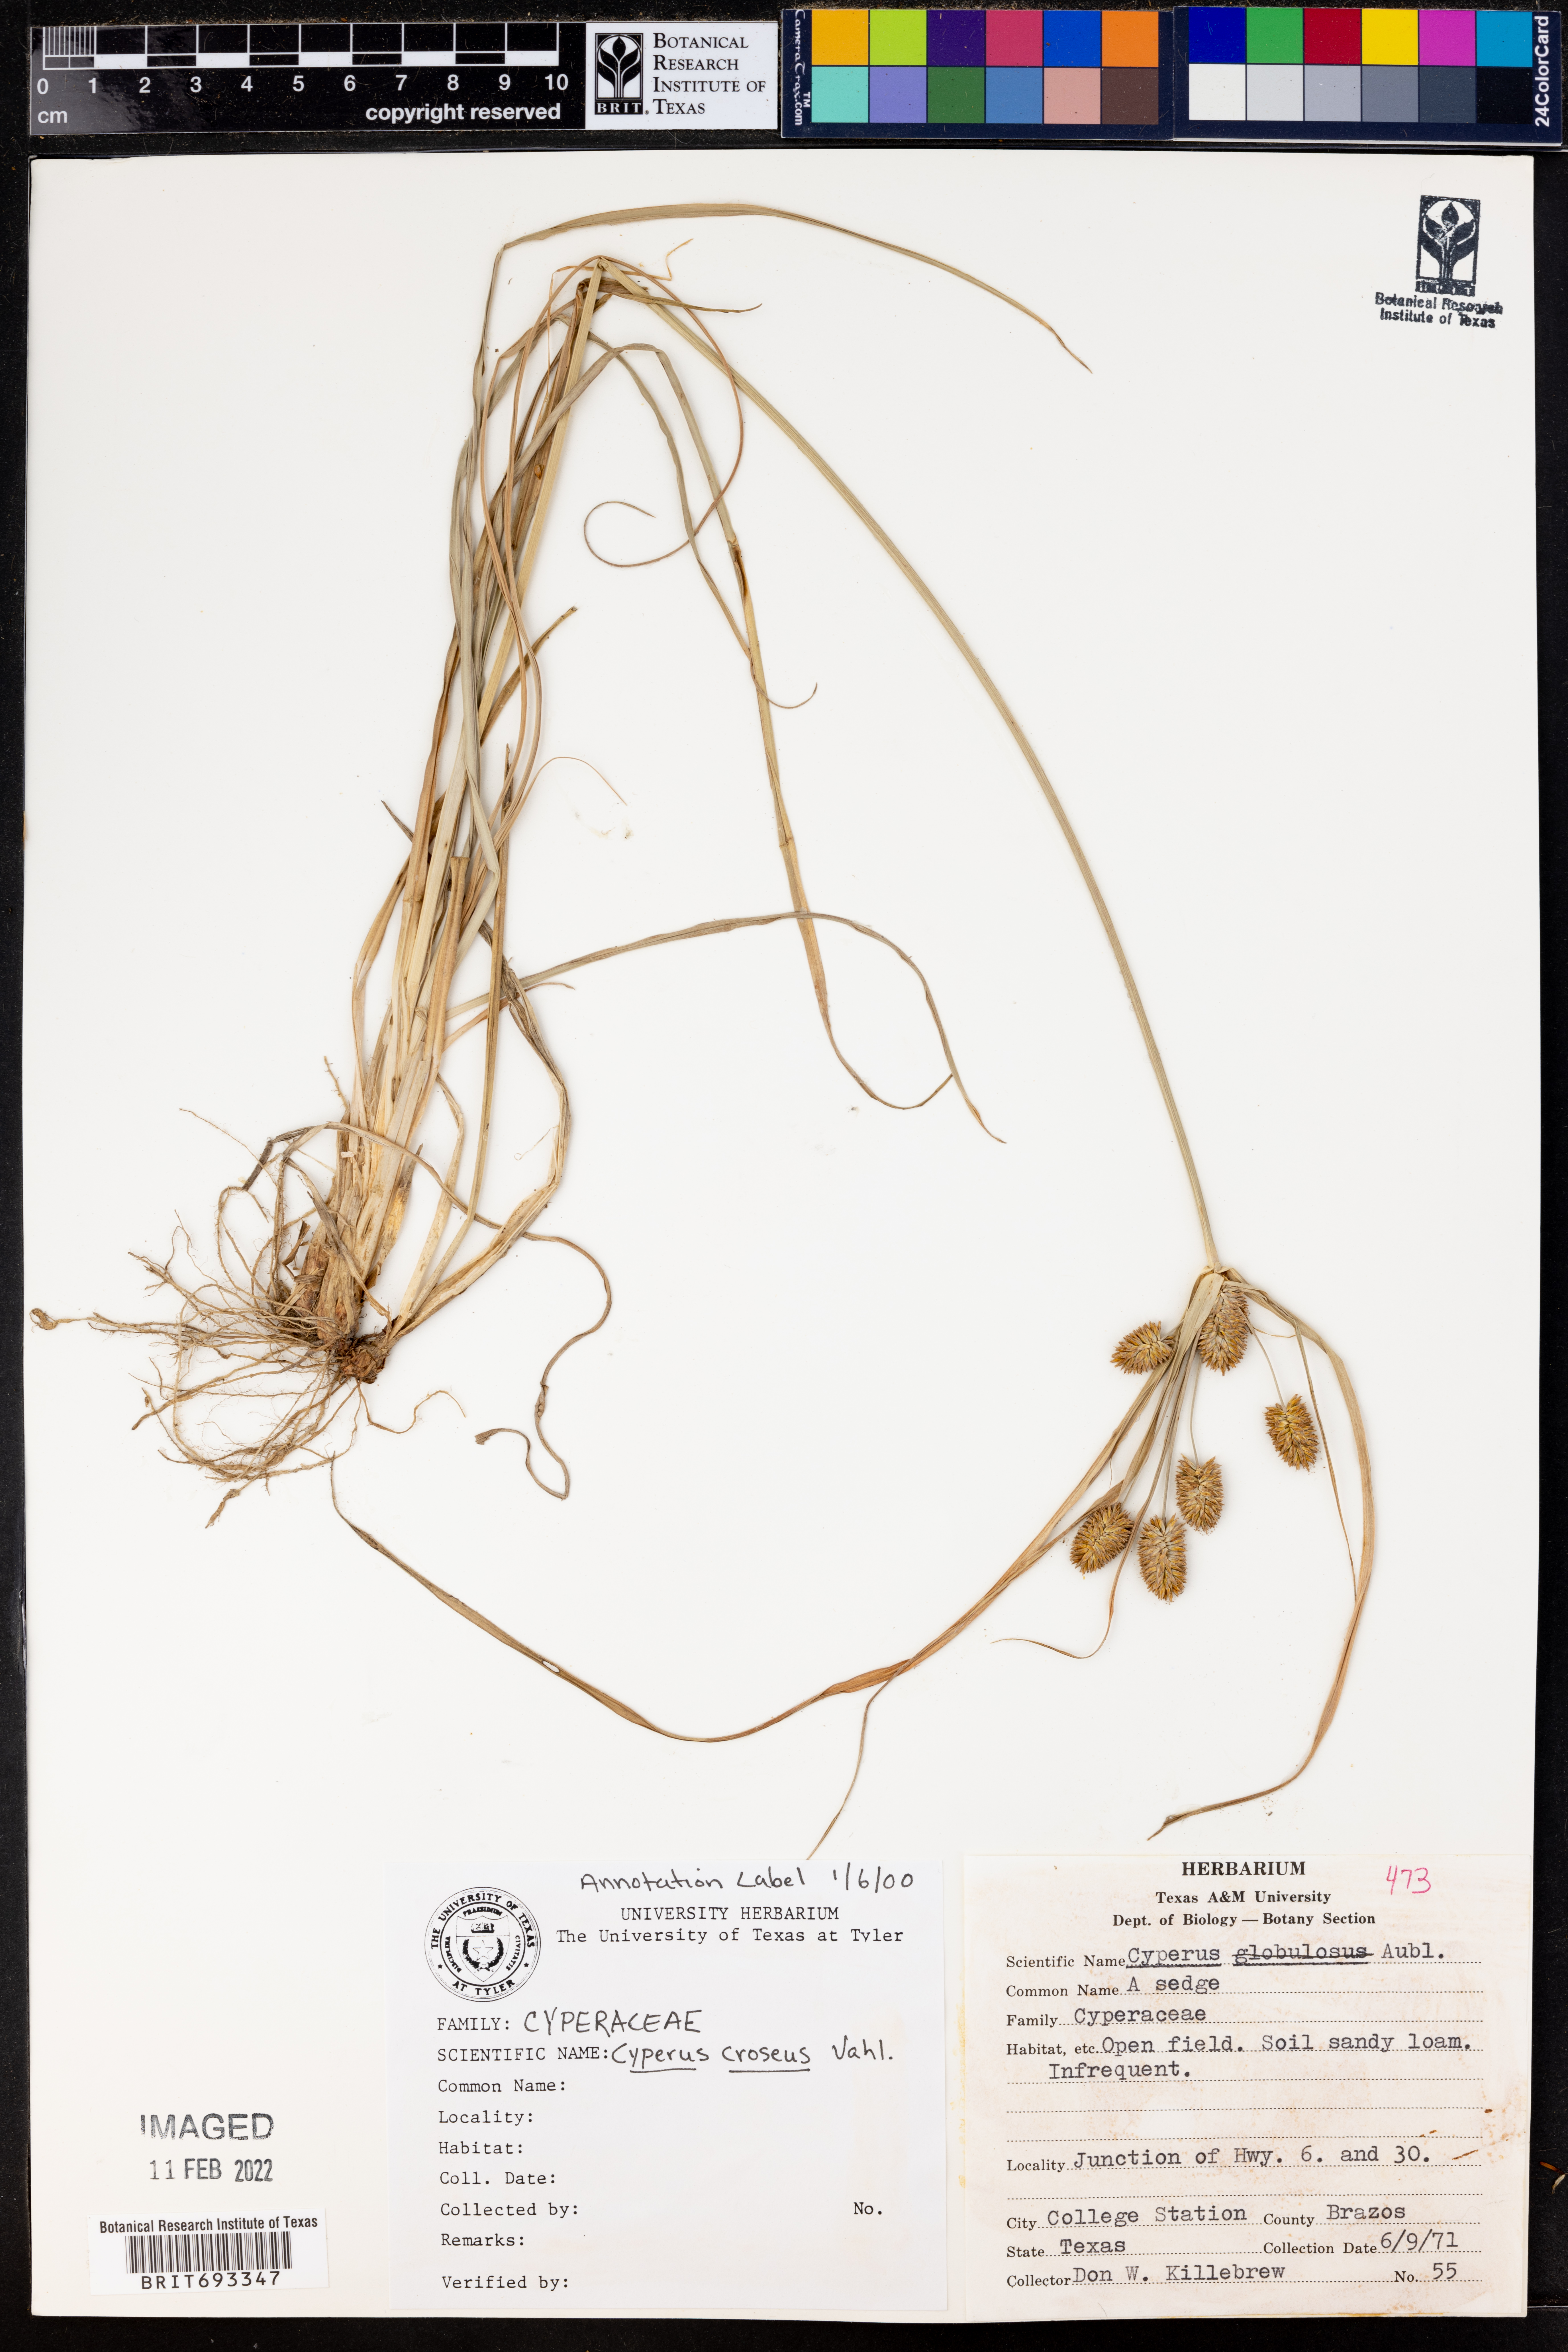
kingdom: Plantae
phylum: Tracheophyta
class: Liliopsida
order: Poales
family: Cyperaceae
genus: Cyperus
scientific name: Cyperus croceus
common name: Baldwin's flatsedge
